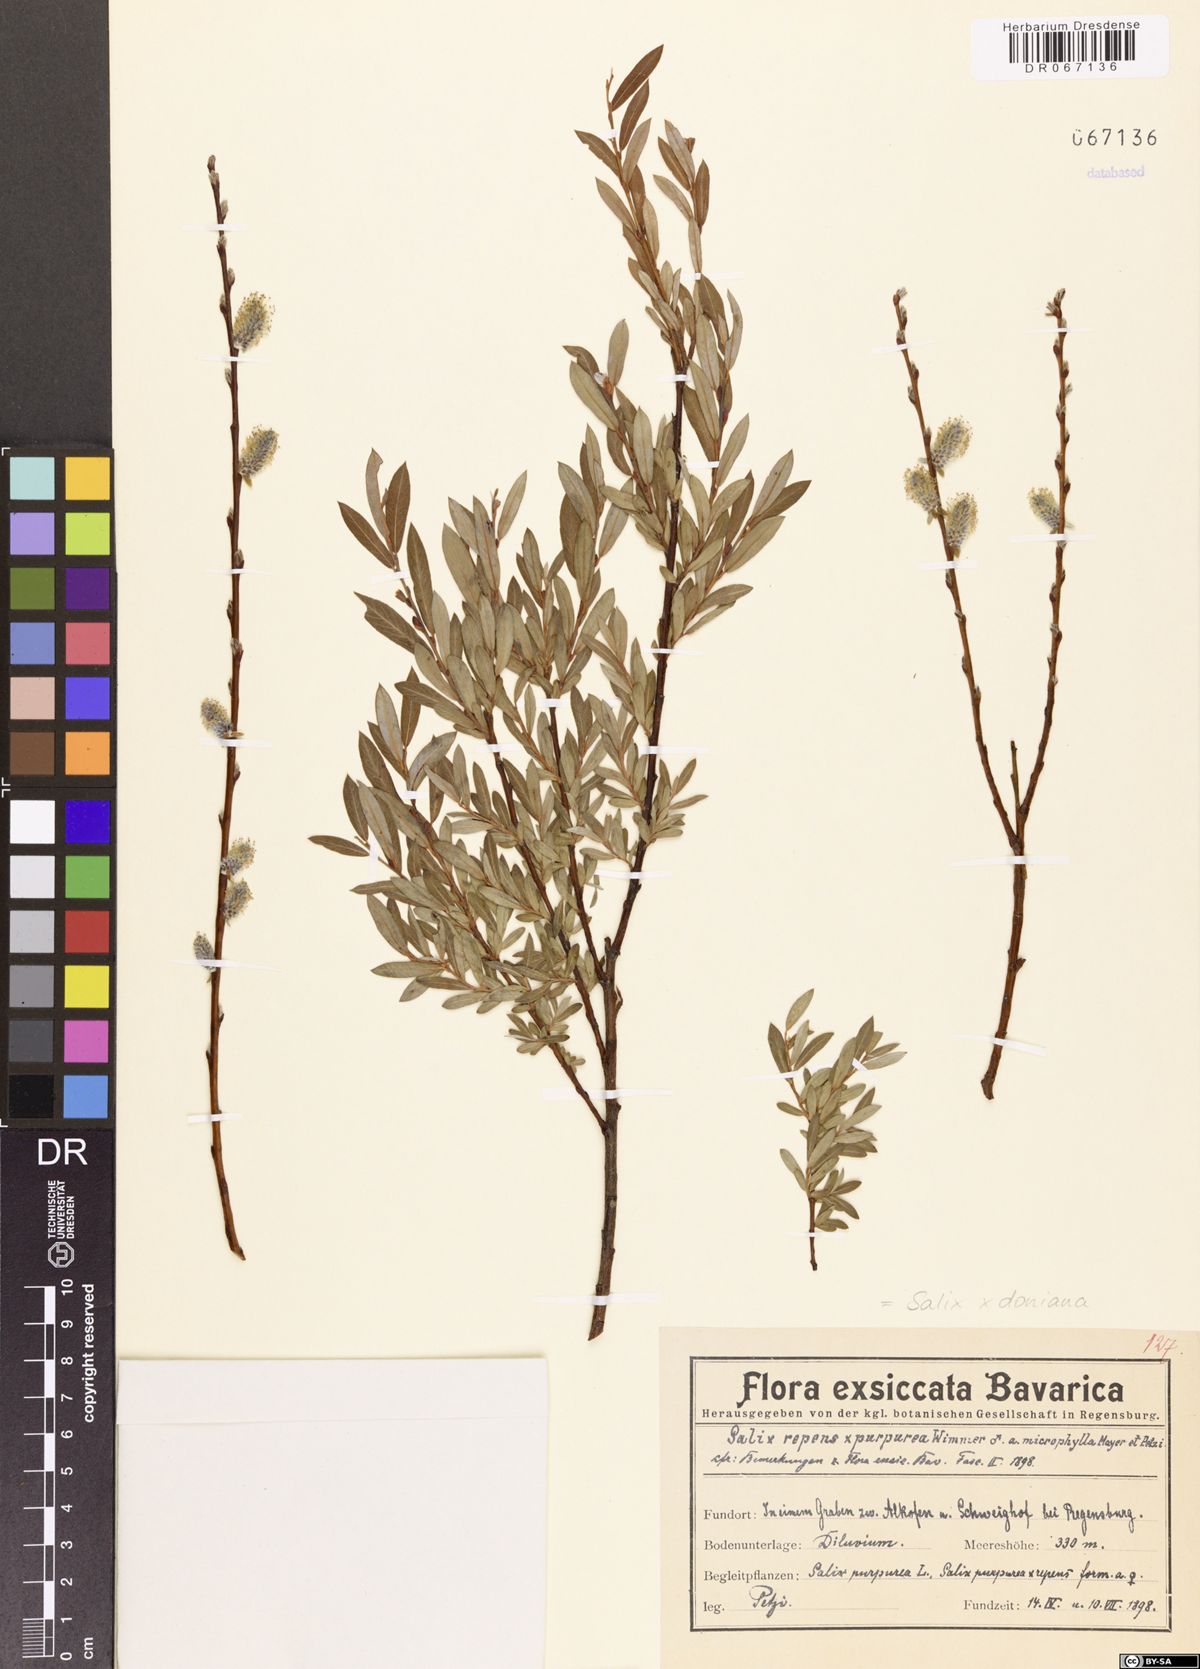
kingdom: Plantae
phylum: Tracheophyta
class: Magnoliopsida
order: Malpighiales
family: Salicaceae
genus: Salix
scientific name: Salix doniana
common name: Donian willow
